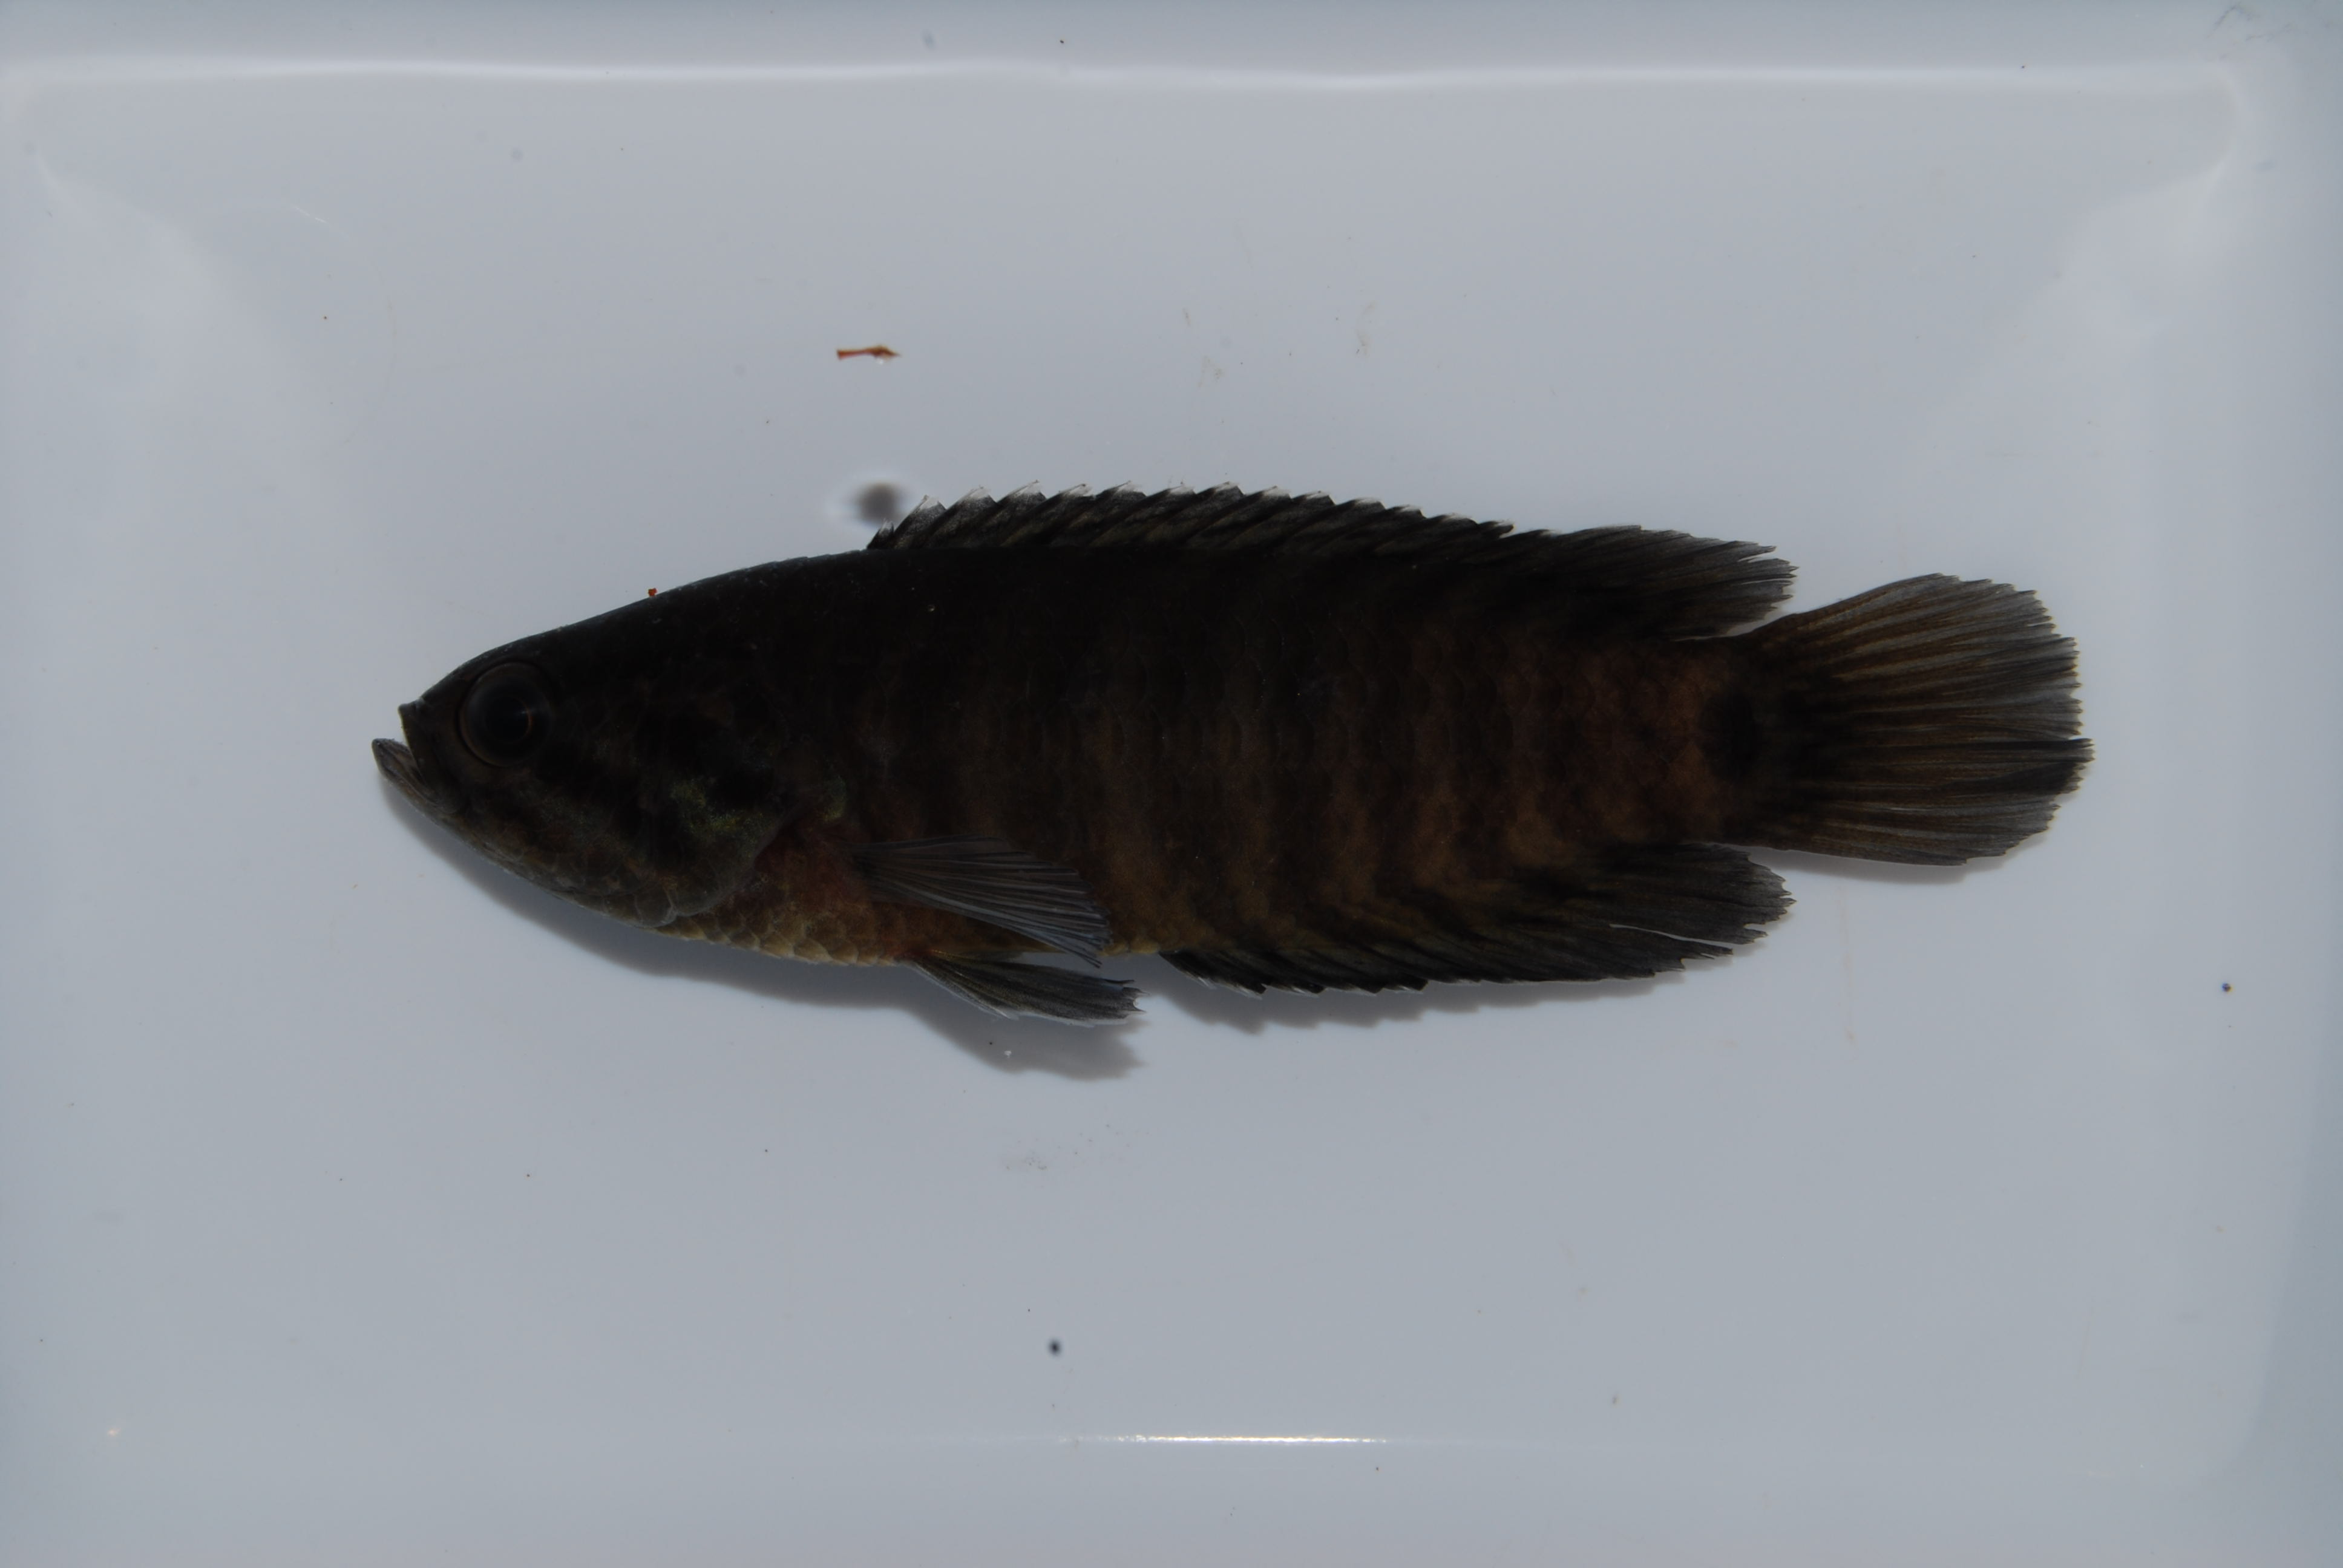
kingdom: Animalia
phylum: Chordata
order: Siluriformes
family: Clariidae
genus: Clarias
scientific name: Clarias ngamensis
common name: Blunt-toothed african catfish
